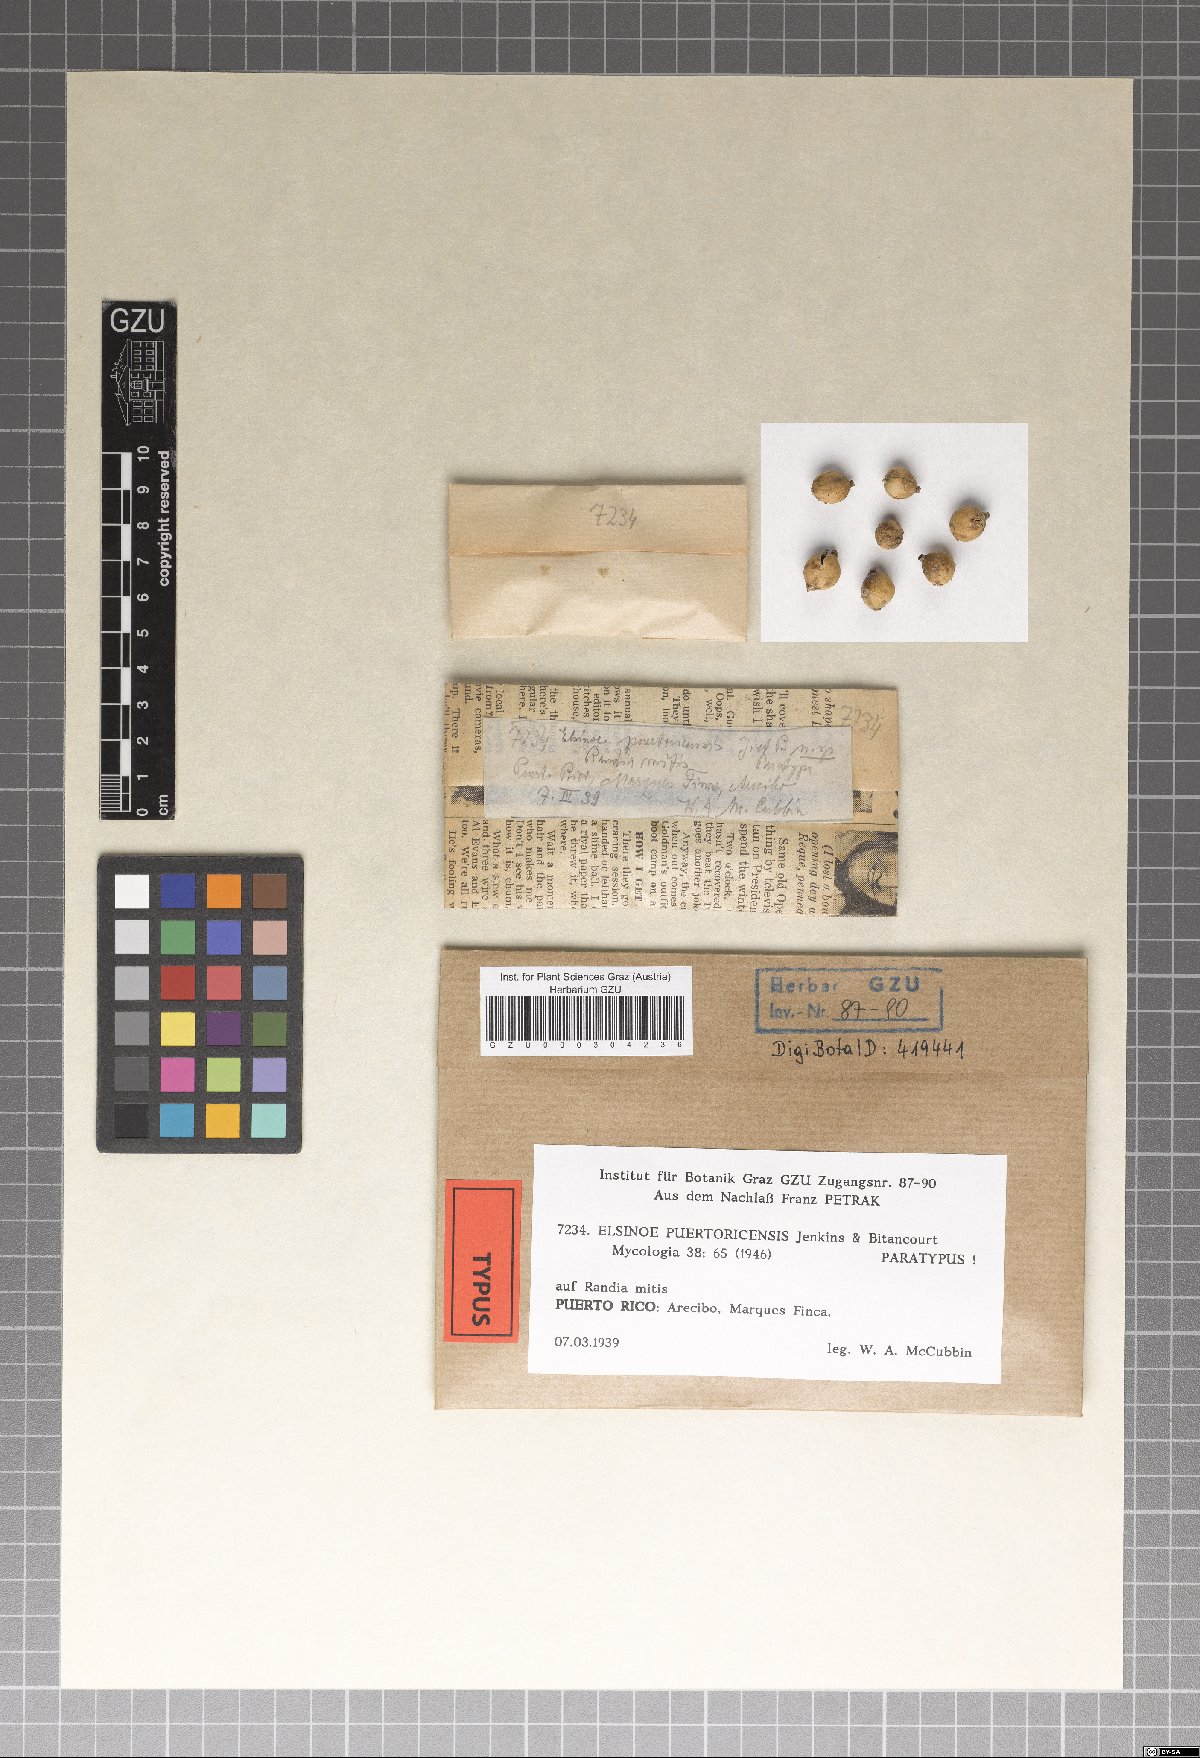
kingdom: Fungi
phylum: Ascomycota
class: Dothideomycetes
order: Myriangiales
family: Elsinoaceae
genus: Elsinoe
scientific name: Elsinoe puertoricensis
